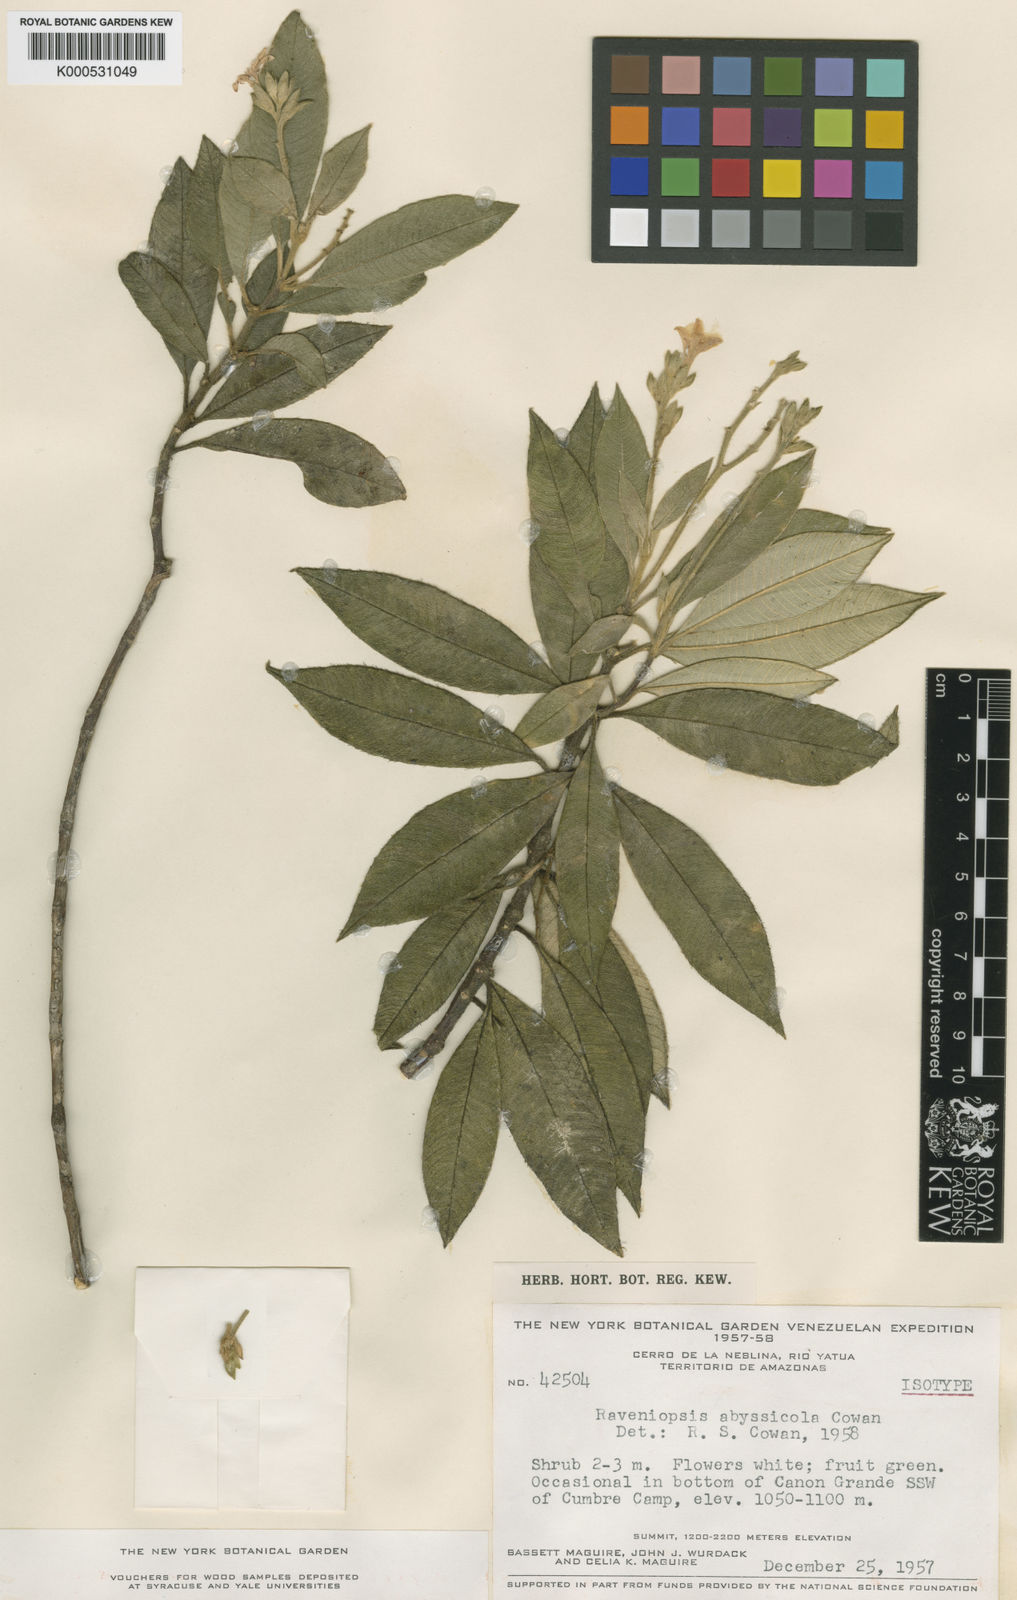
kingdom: Plantae
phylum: Tracheophyta
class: Magnoliopsida
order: Sapindales
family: Rutaceae
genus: Raveniopsis
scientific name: Raveniopsis abyssicola
